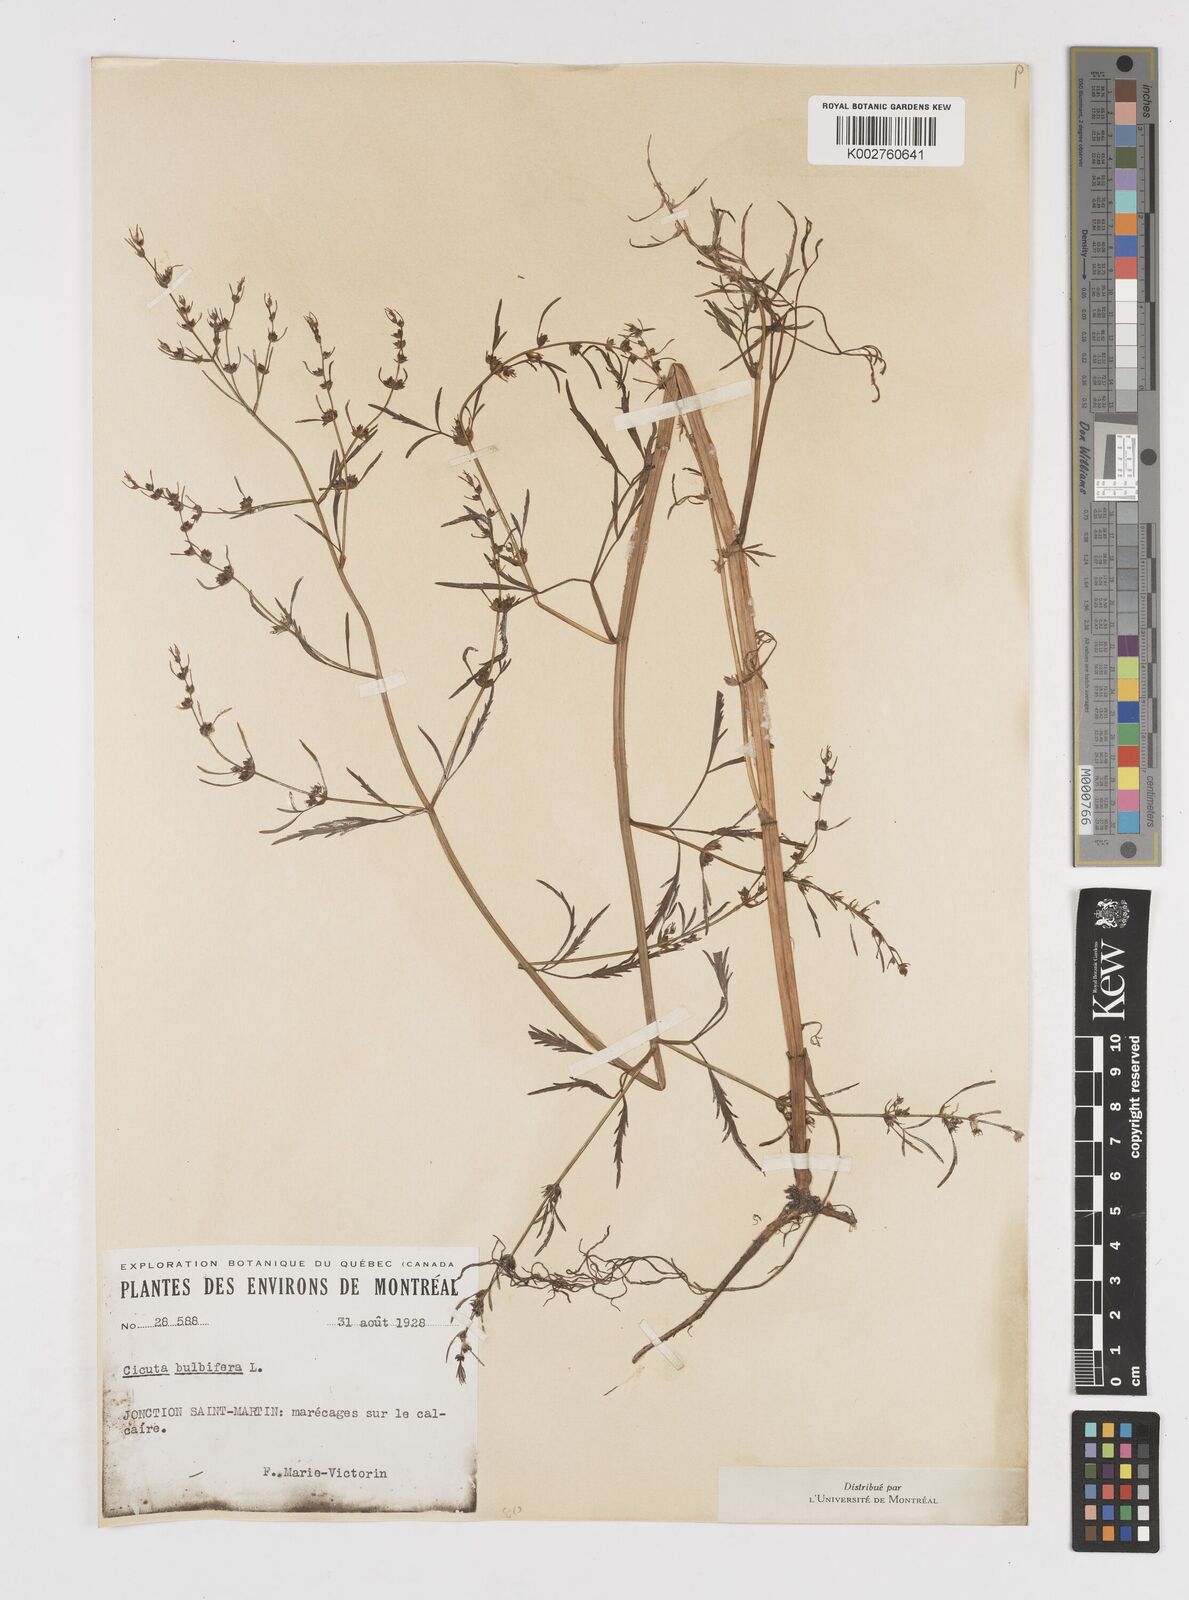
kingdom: Plantae
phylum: Tracheophyta
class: Magnoliopsida
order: Apiales
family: Apiaceae
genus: Cicuta
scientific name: Cicuta bulbifera
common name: Bulb-bearing water-hemlock
